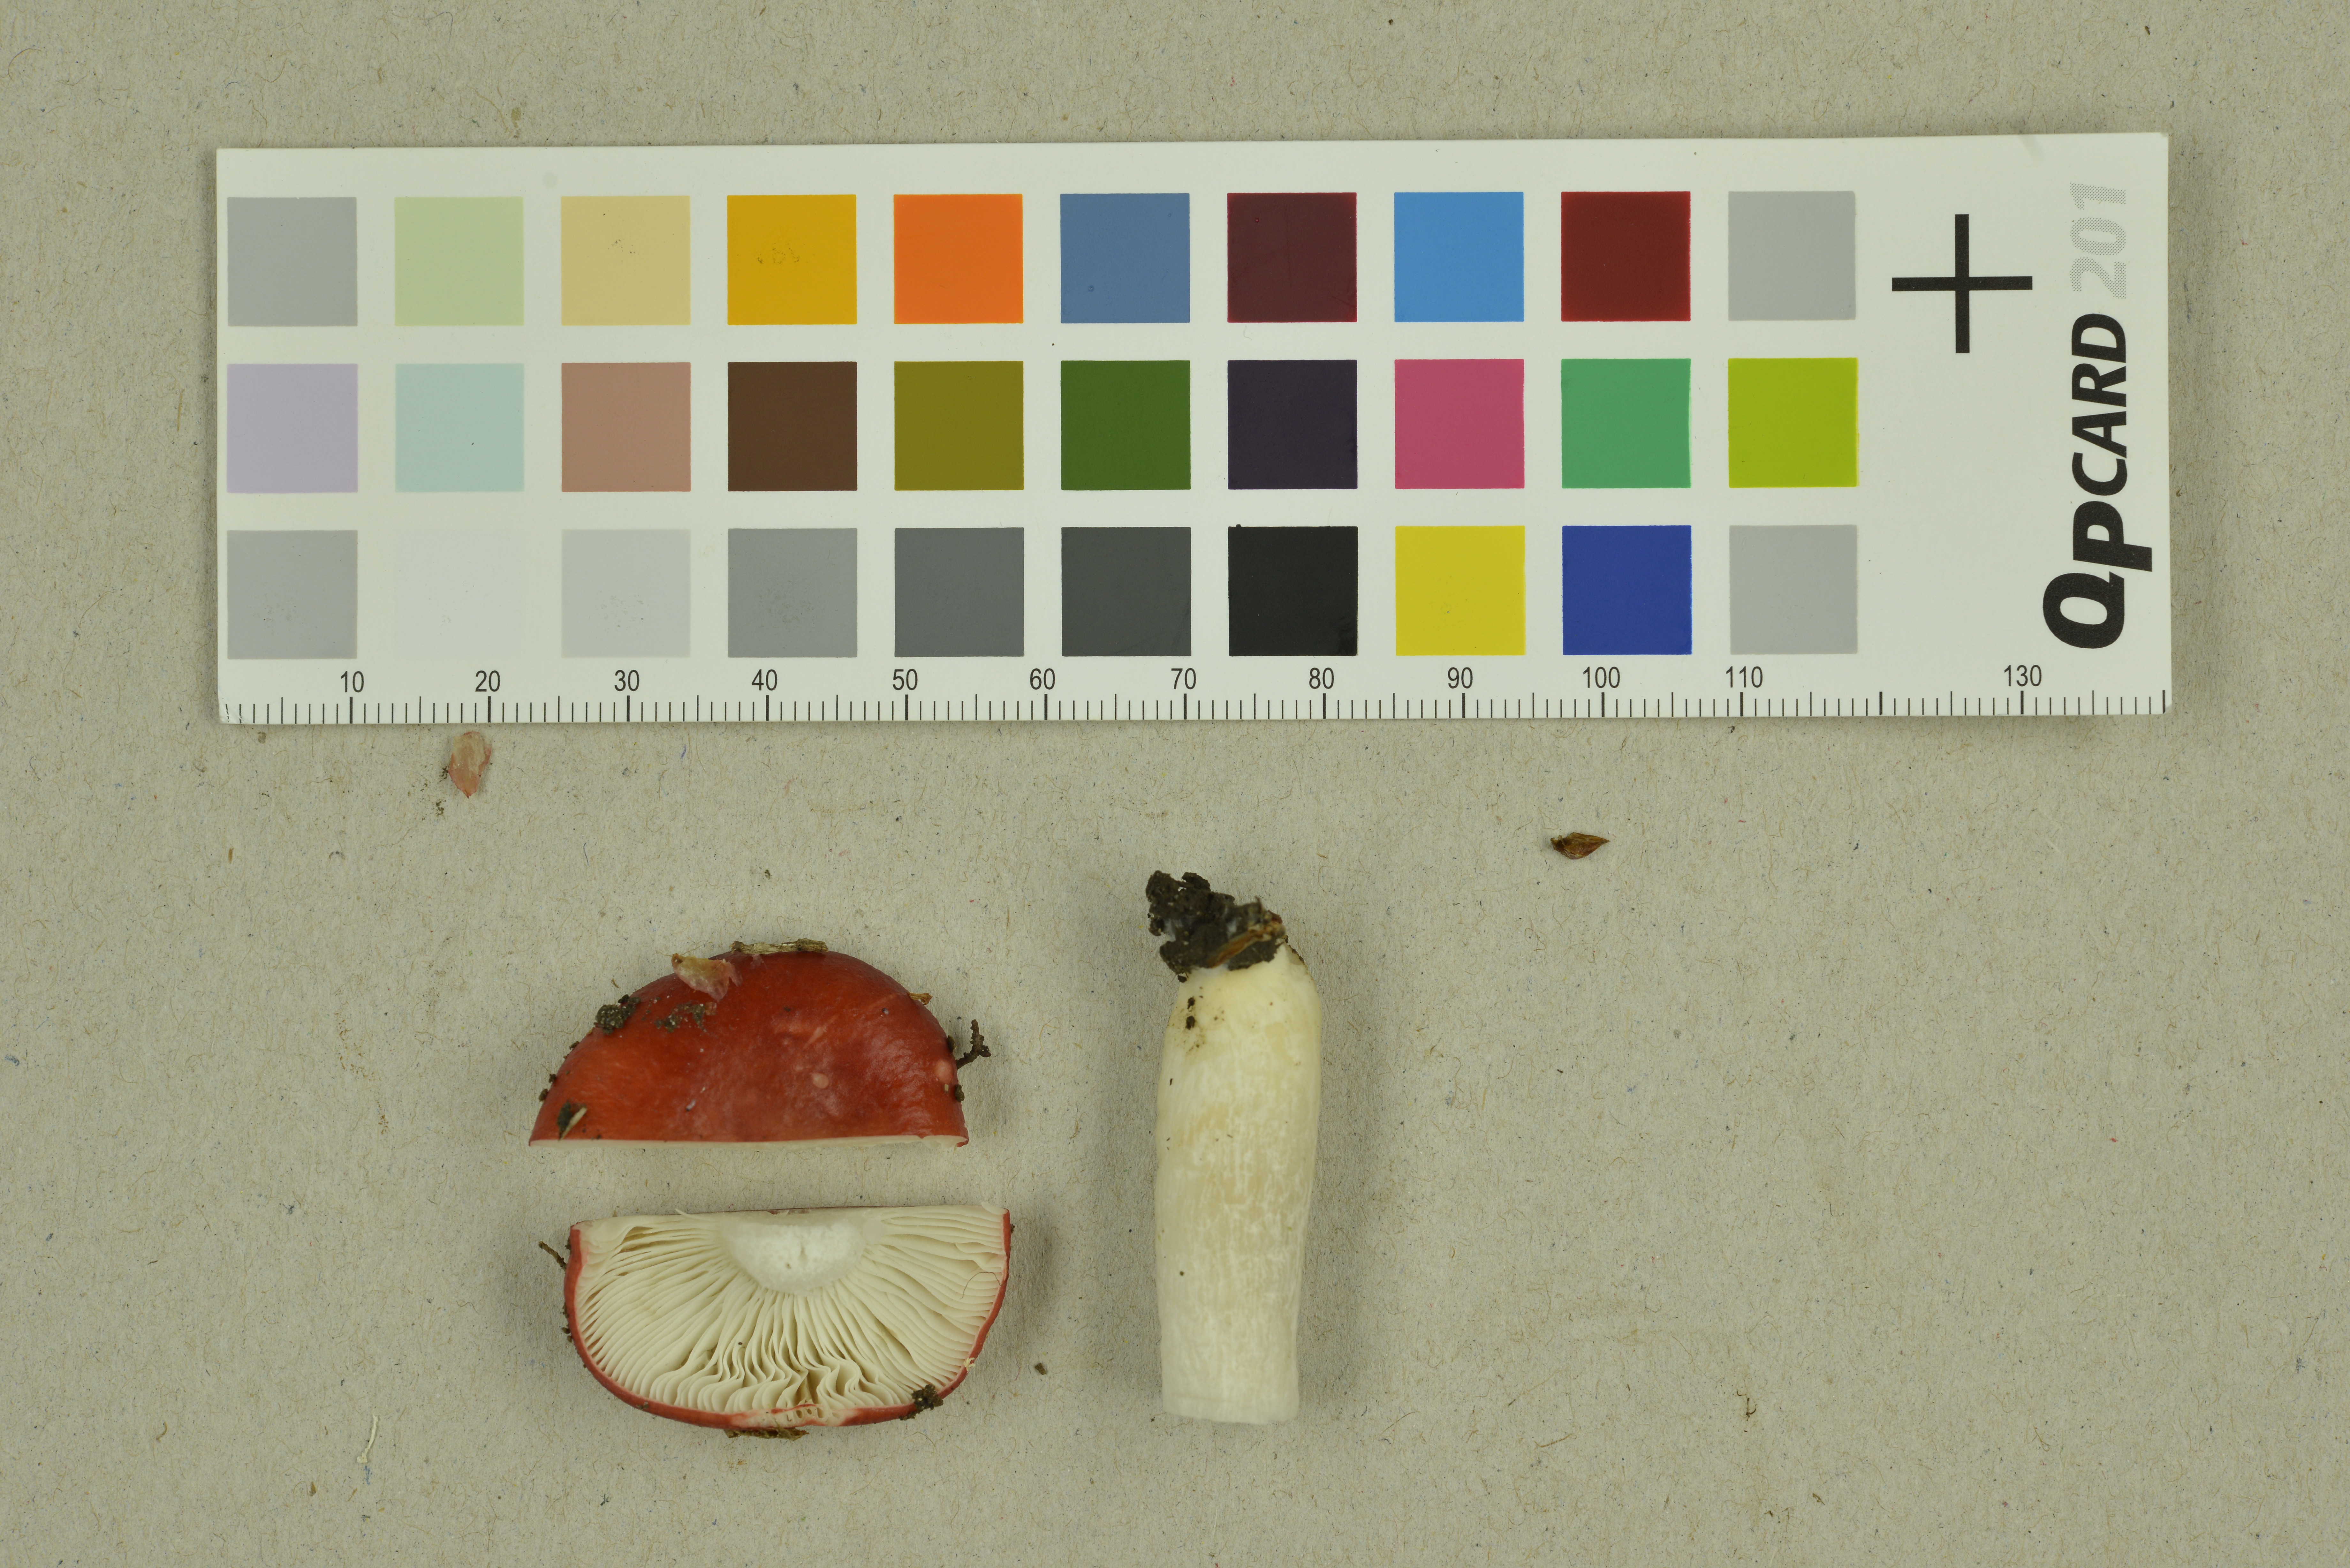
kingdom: Fungi
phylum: Basidiomycota
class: Agaricomycetes
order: Russulales
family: Russulaceae
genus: Russula
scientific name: Russula grisescens
